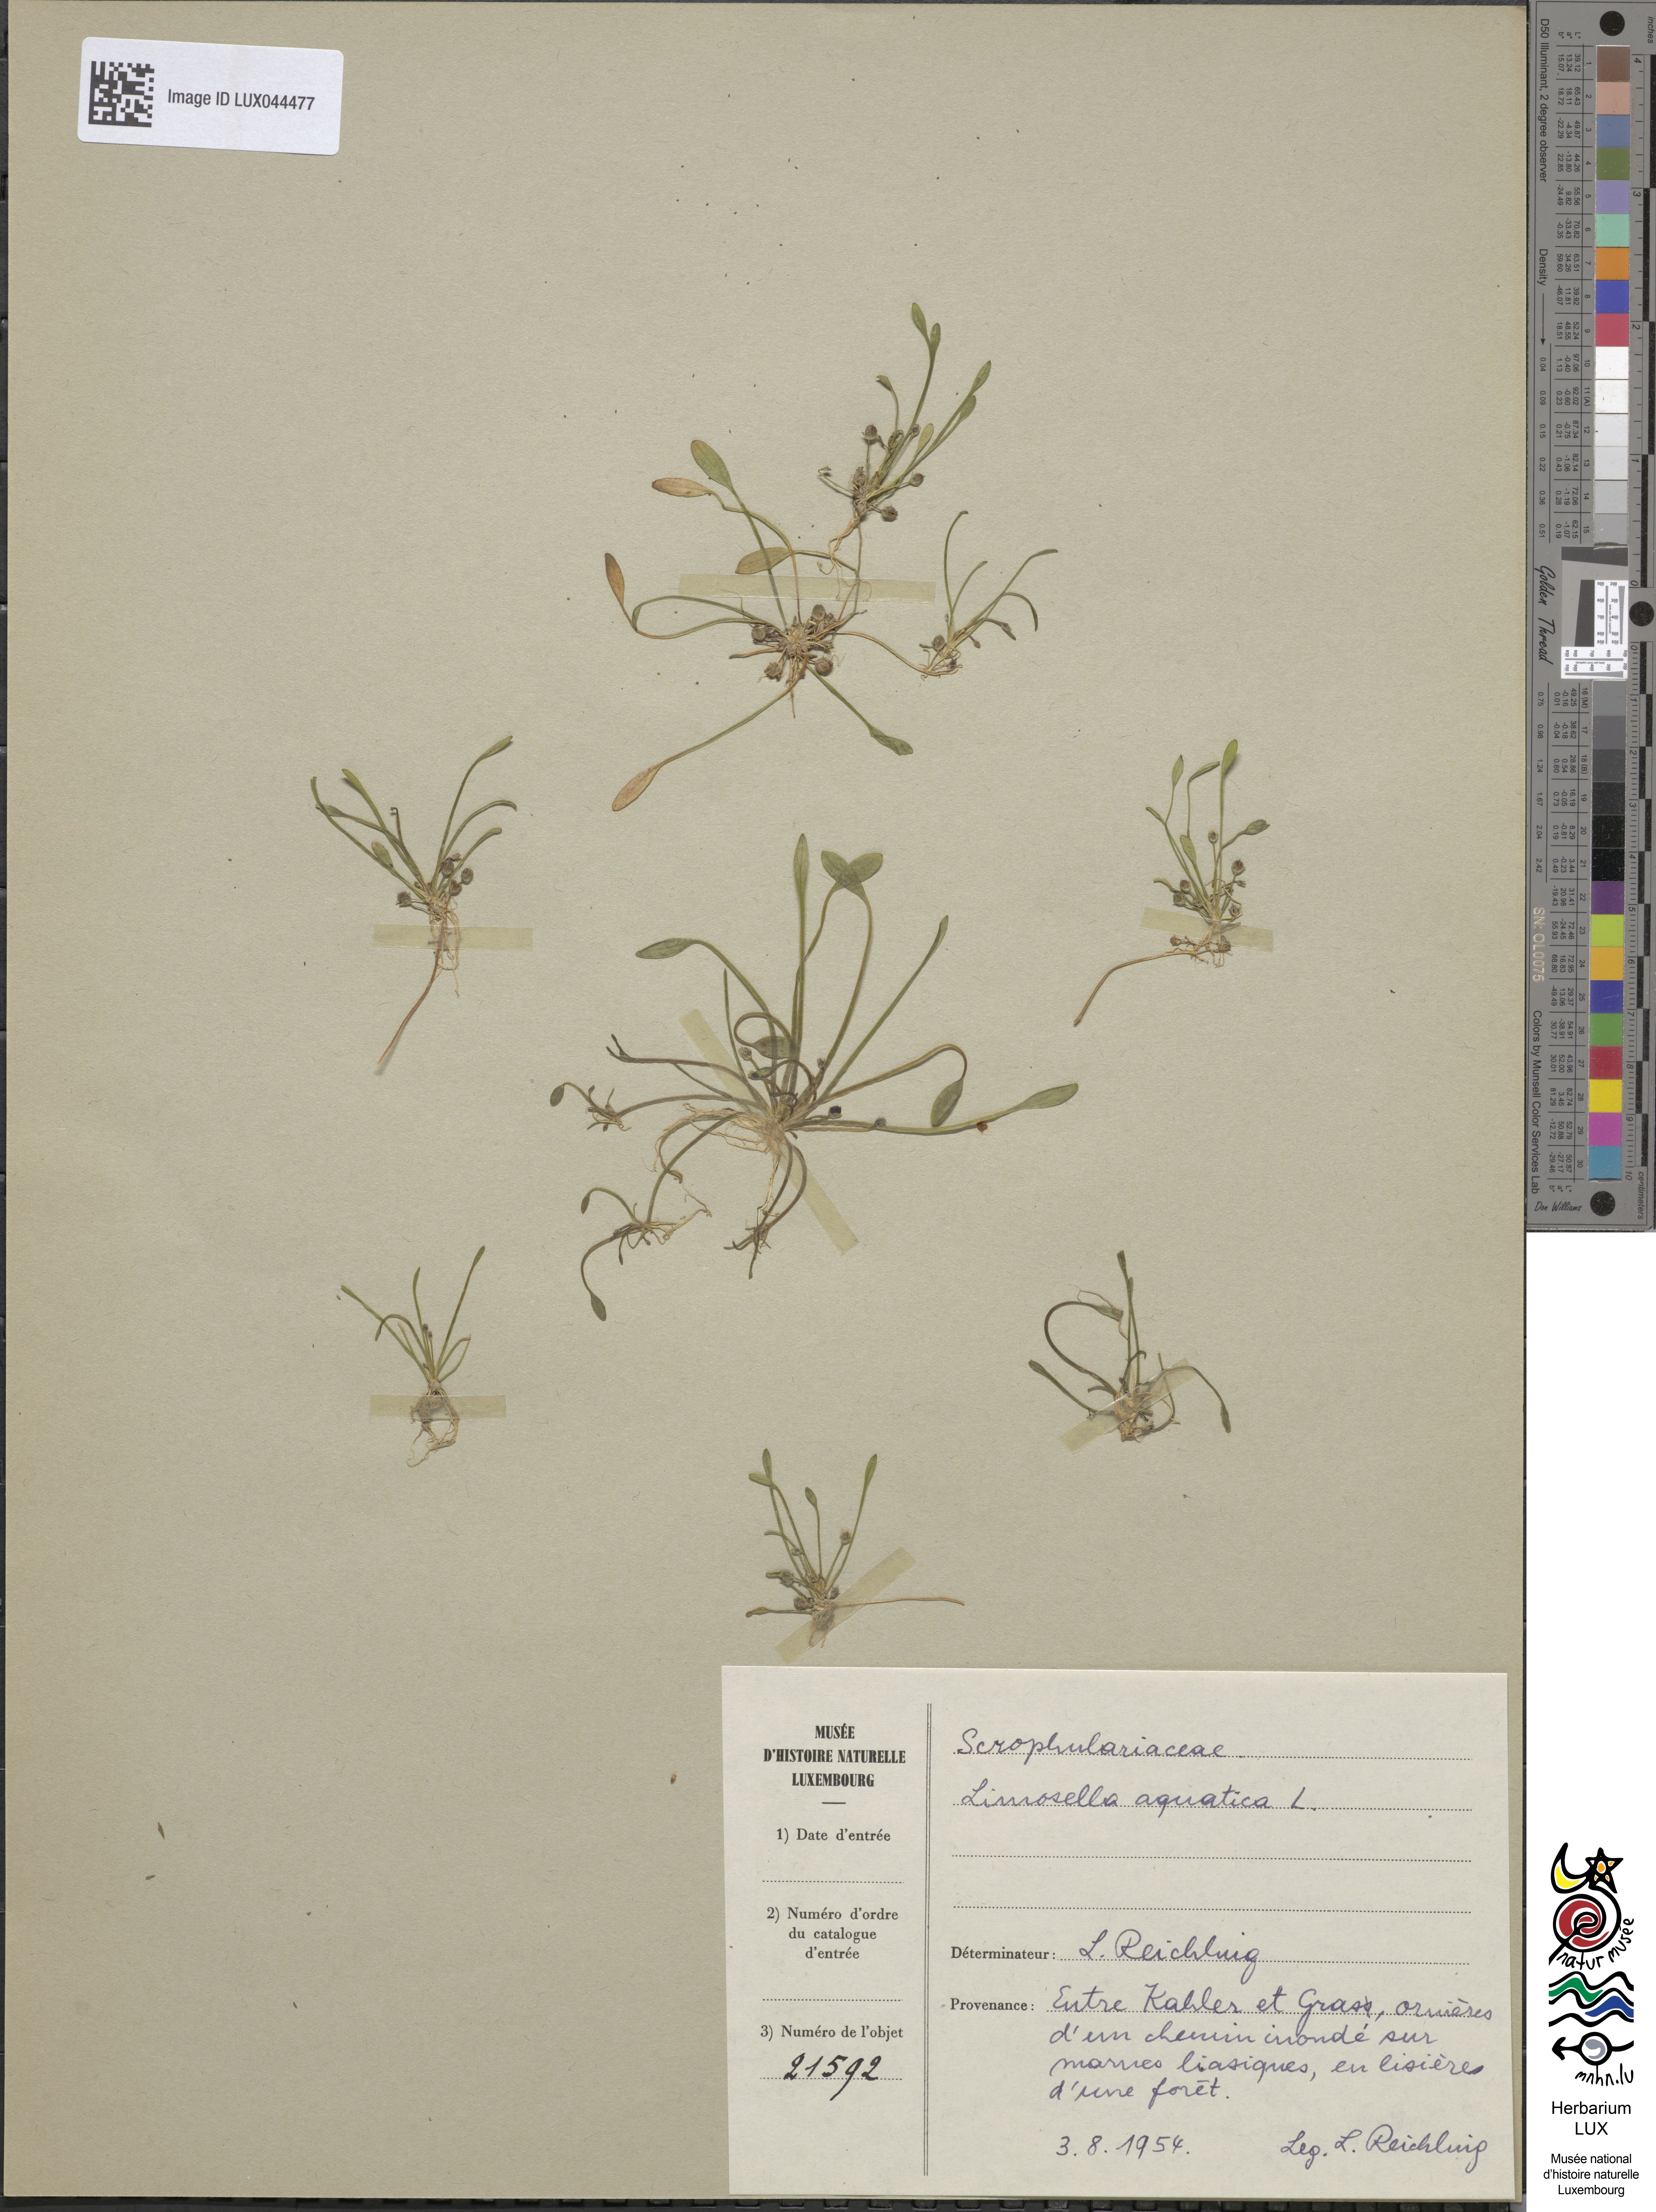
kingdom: Plantae
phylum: Tracheophyta
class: Magnoliopsida
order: Lamiales
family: Scrophulariaceae
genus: Limosella
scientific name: Limosella aquatica
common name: Mudwort
